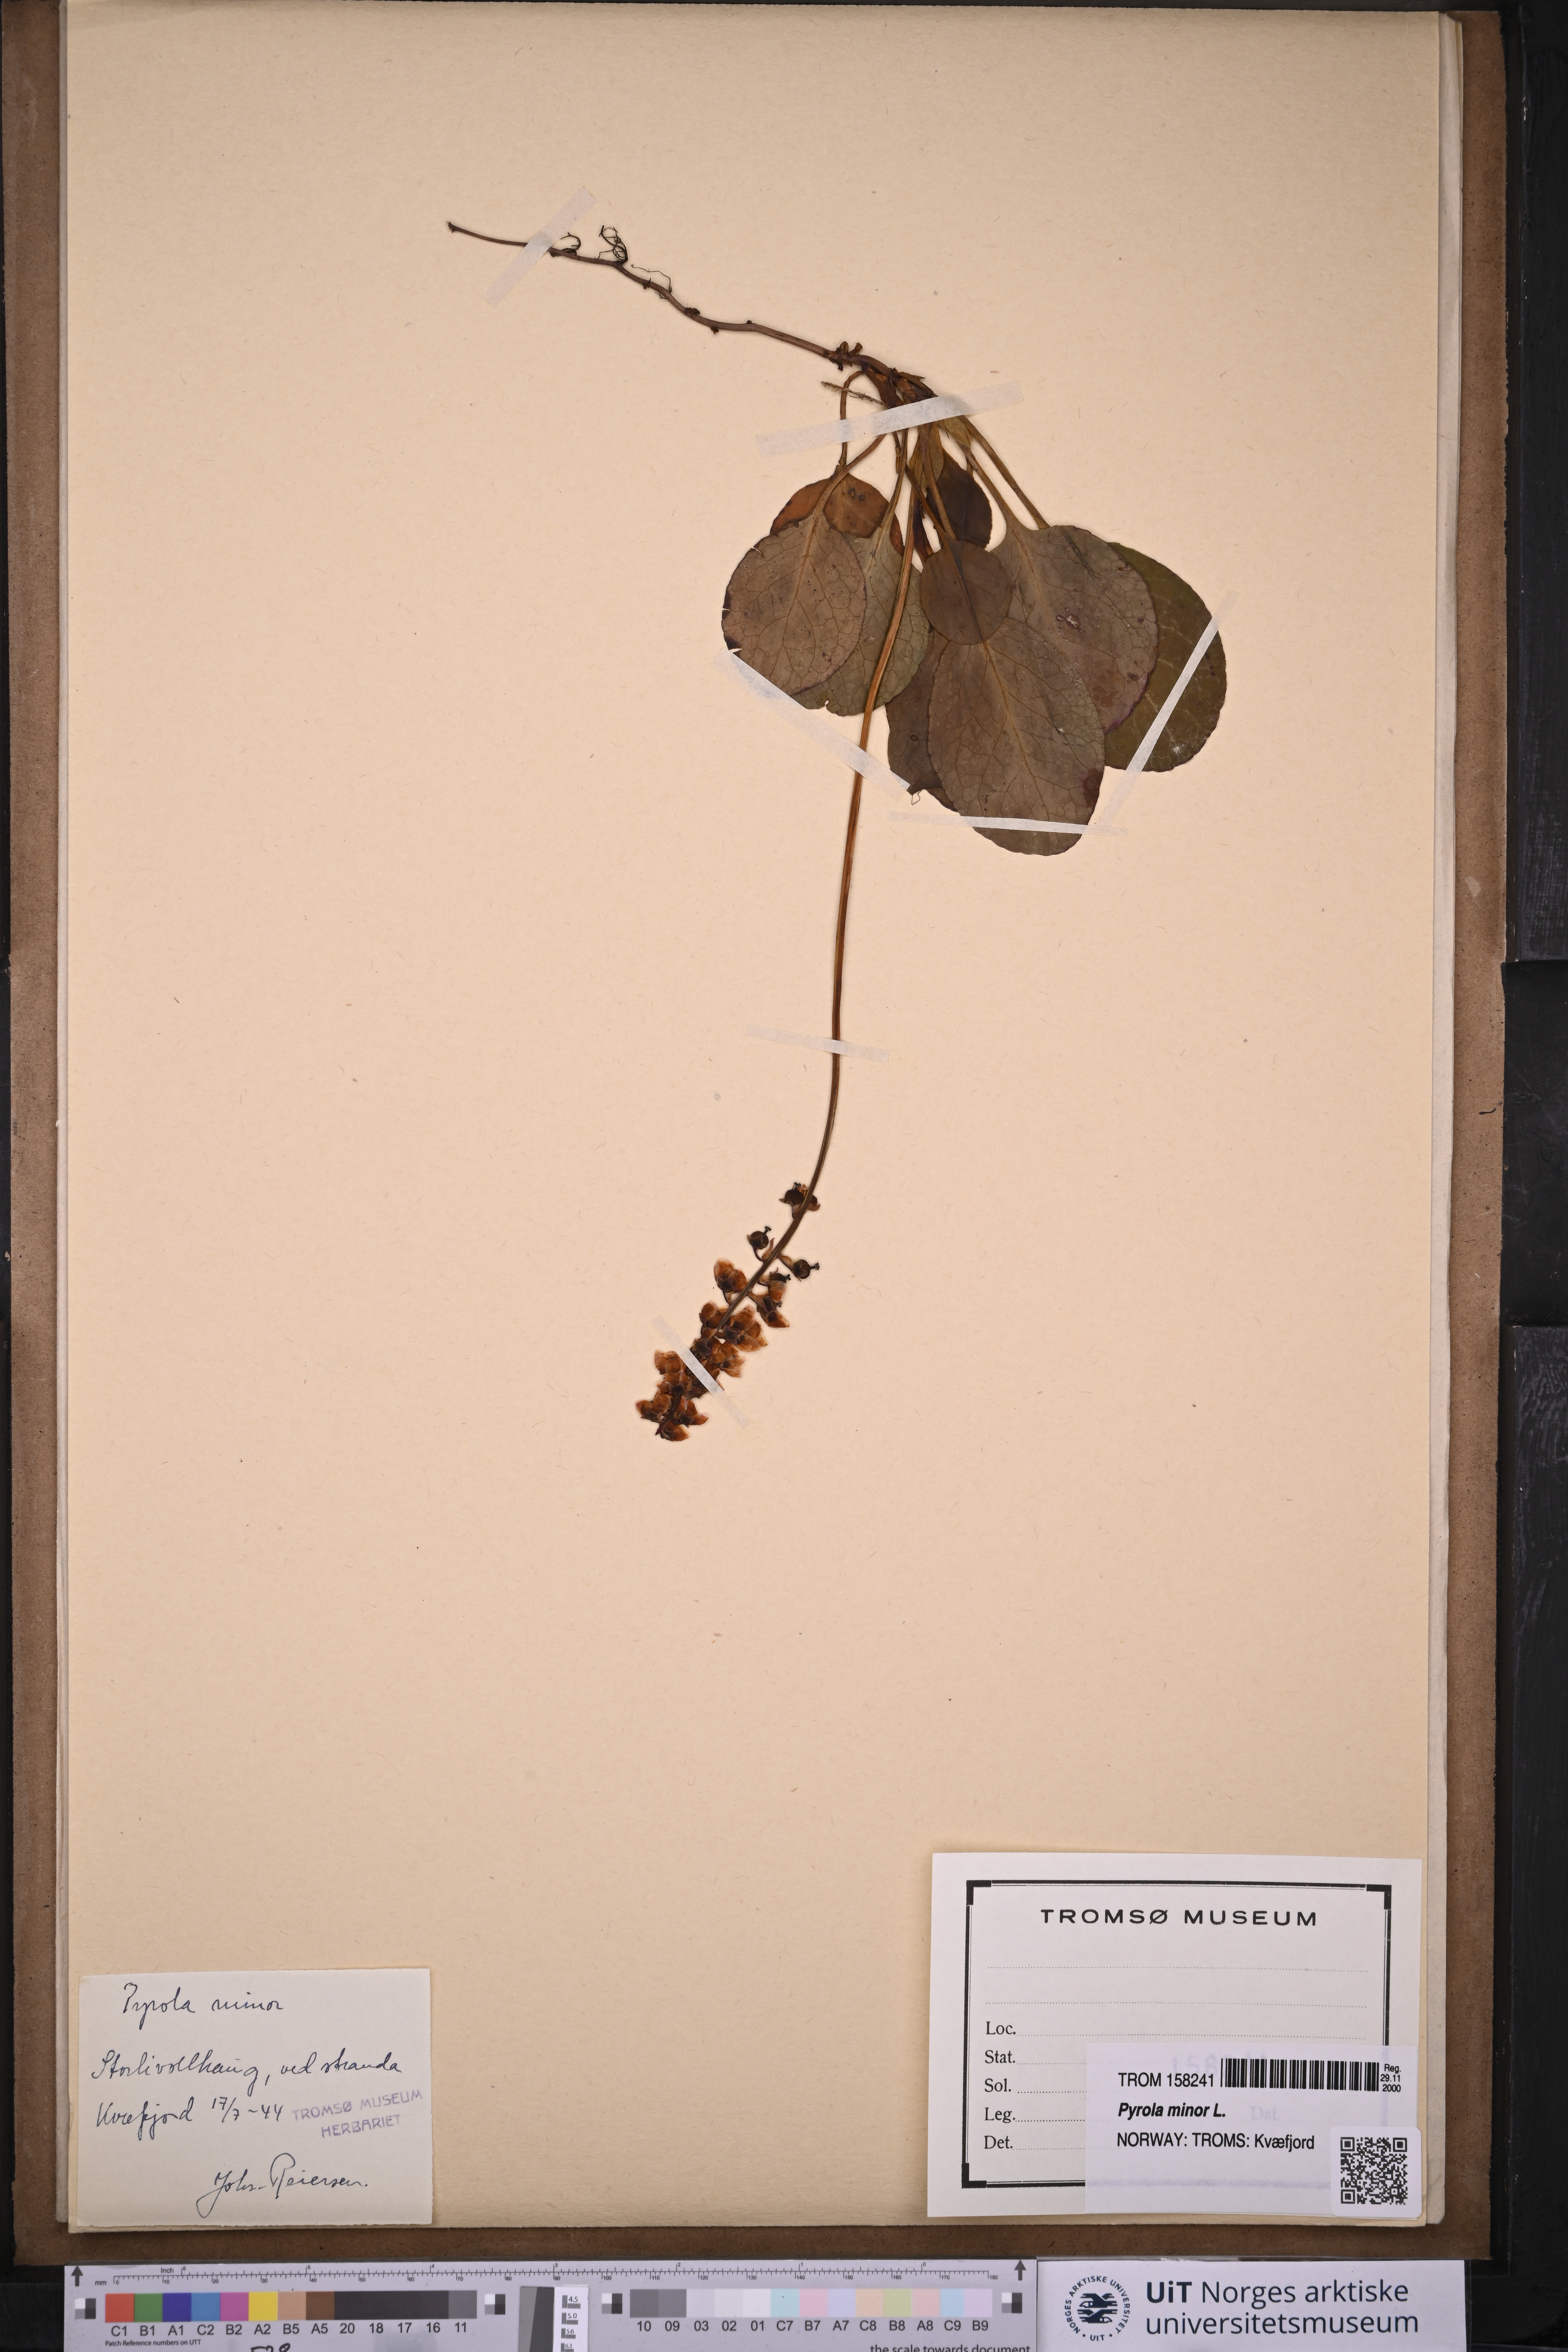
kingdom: Plantae
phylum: Tracheophyta
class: Magnoliopsida
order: Ericales
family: Ericaceae
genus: Pyrola
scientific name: Pyrola minor
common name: Common wintergreen
